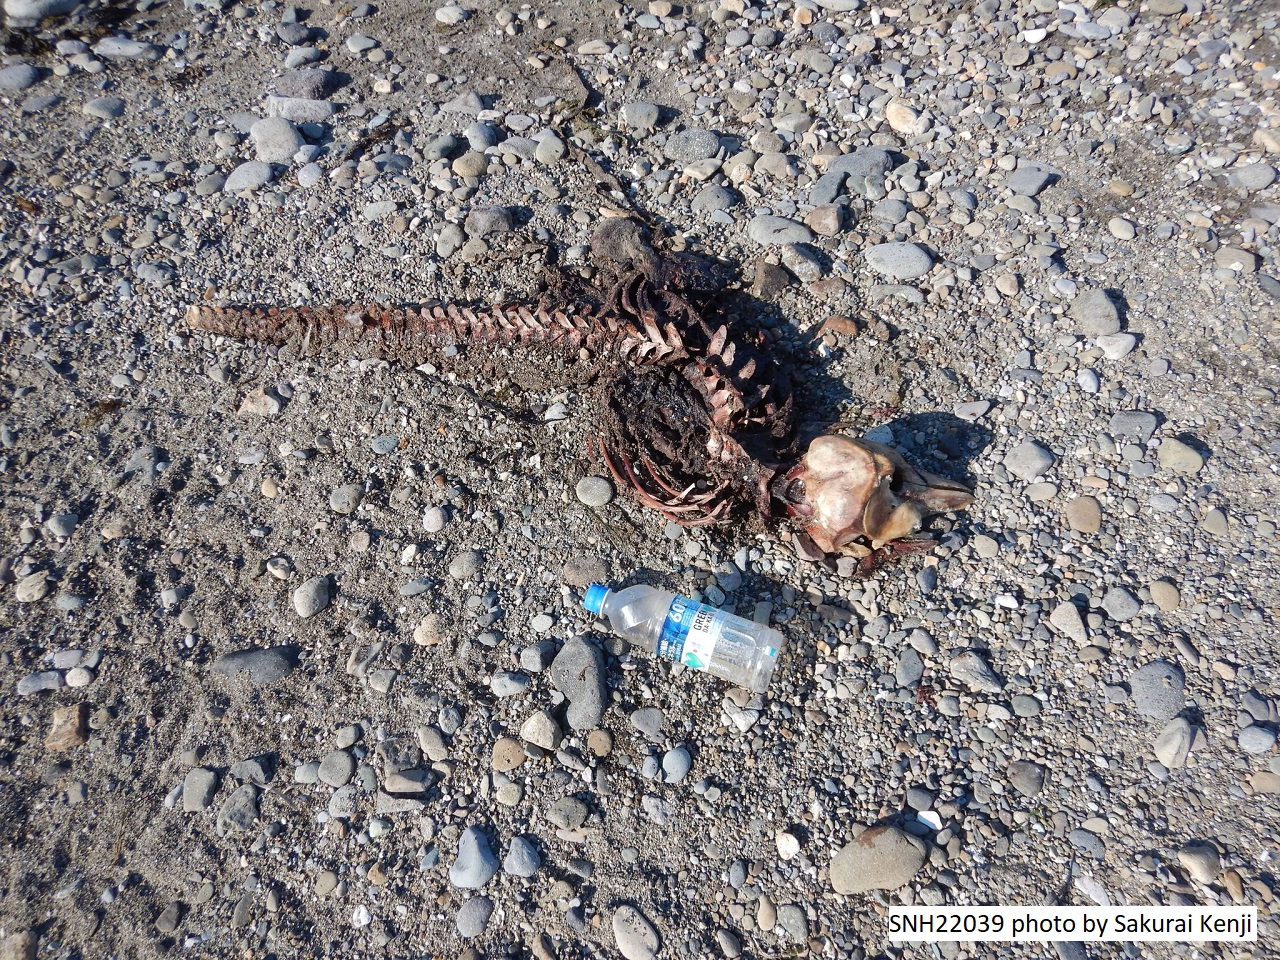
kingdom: Animalia
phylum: Chordata
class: Mammalia
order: Cetacea
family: Phocoenidae
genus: Phocoena
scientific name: Phocoena phocoena
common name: Harbour porpoise
